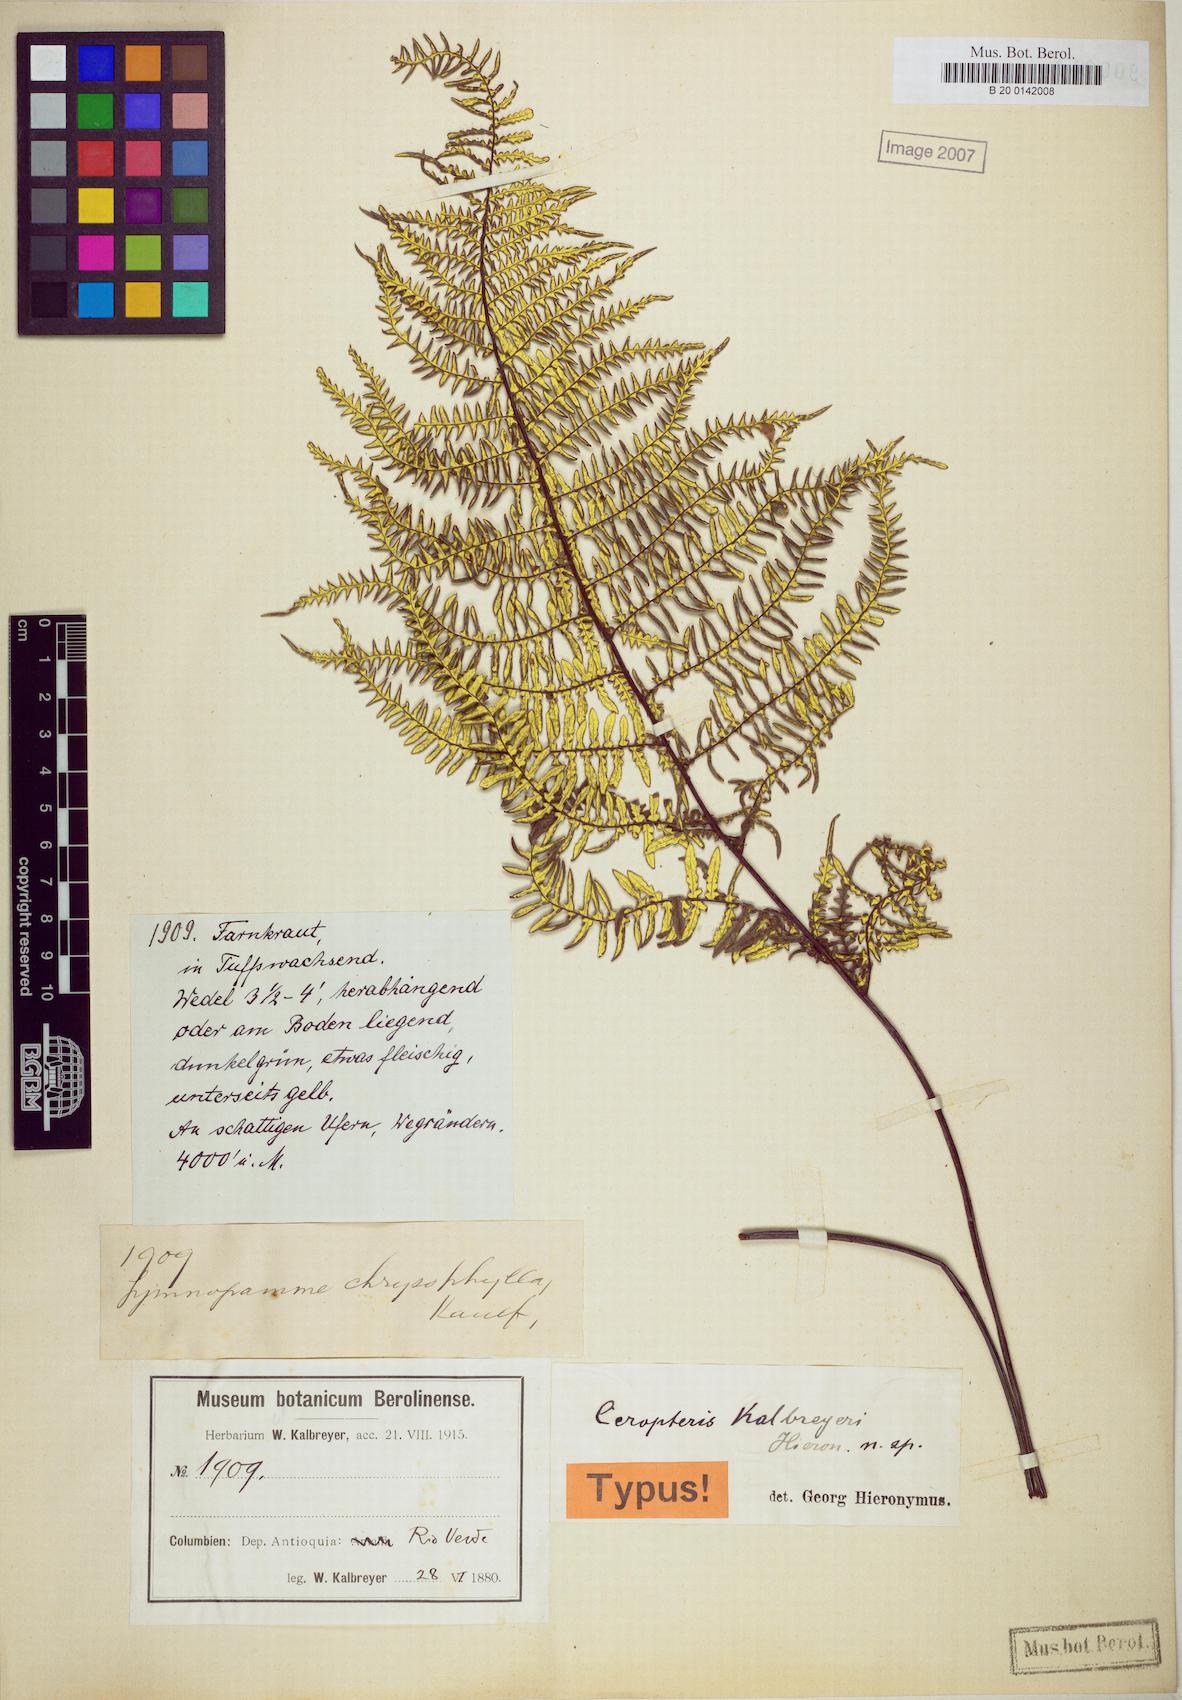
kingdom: Plantae
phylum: Tracheophyta
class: Polypodiopsida
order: Polypodiales
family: Pteridaceae
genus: Pityrogramma
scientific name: Pityrogramma ebenea
